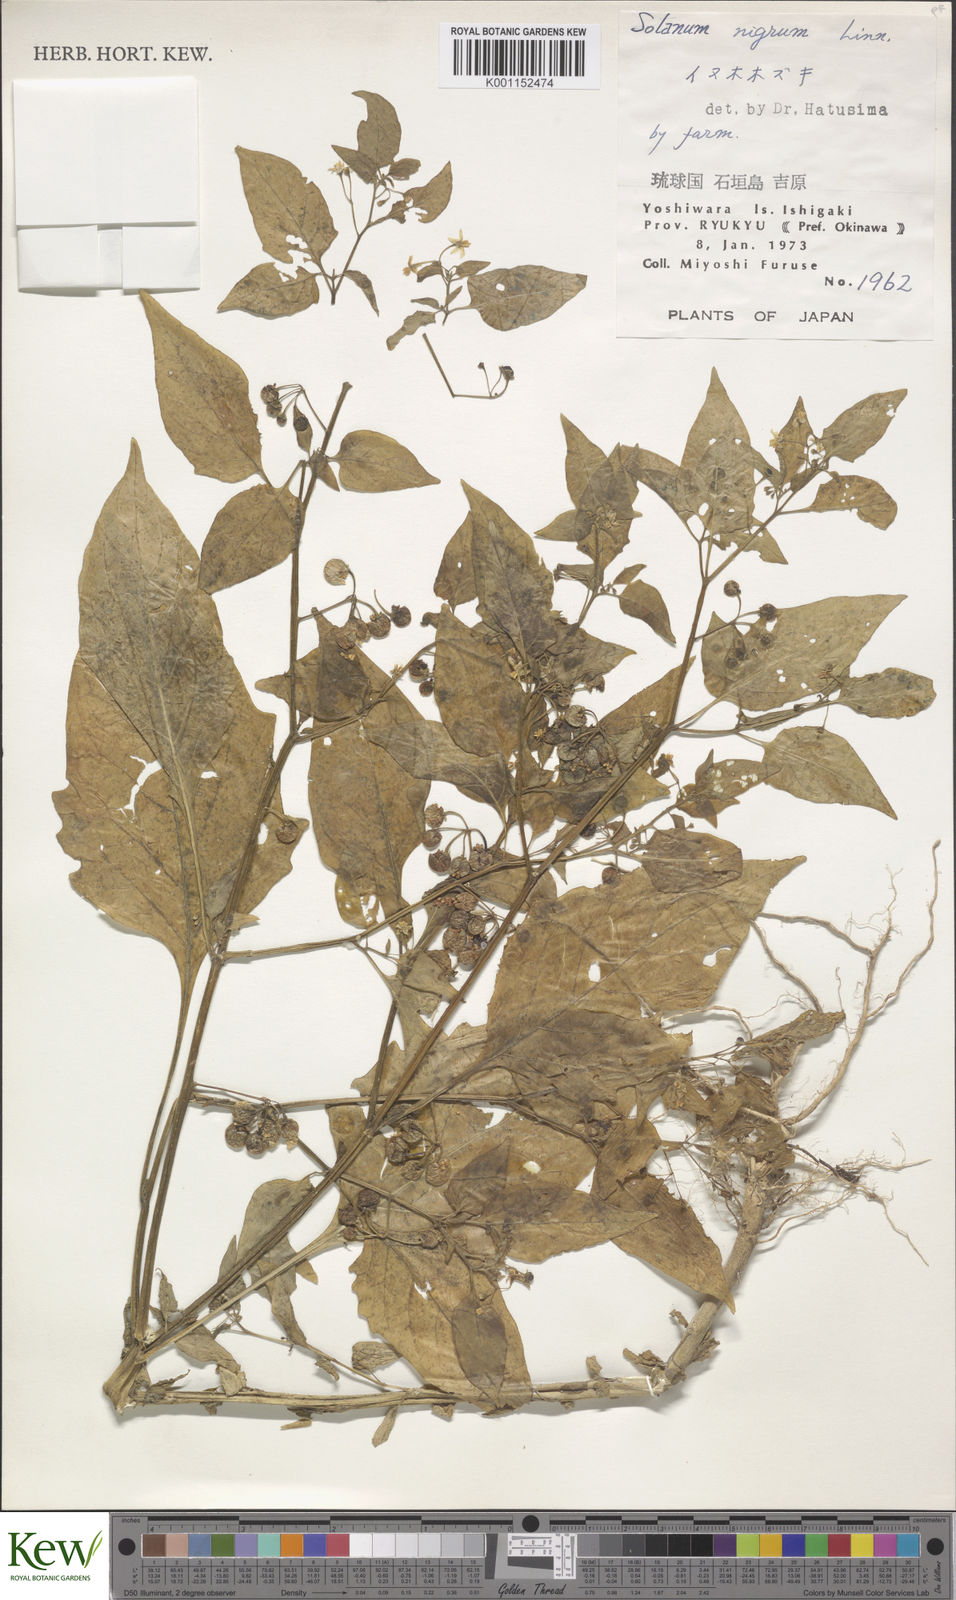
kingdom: Plantae
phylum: Tracheophyta
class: Magnoliopsida
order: Solanales
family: Solanaceae
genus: Solanum
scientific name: Solanum
